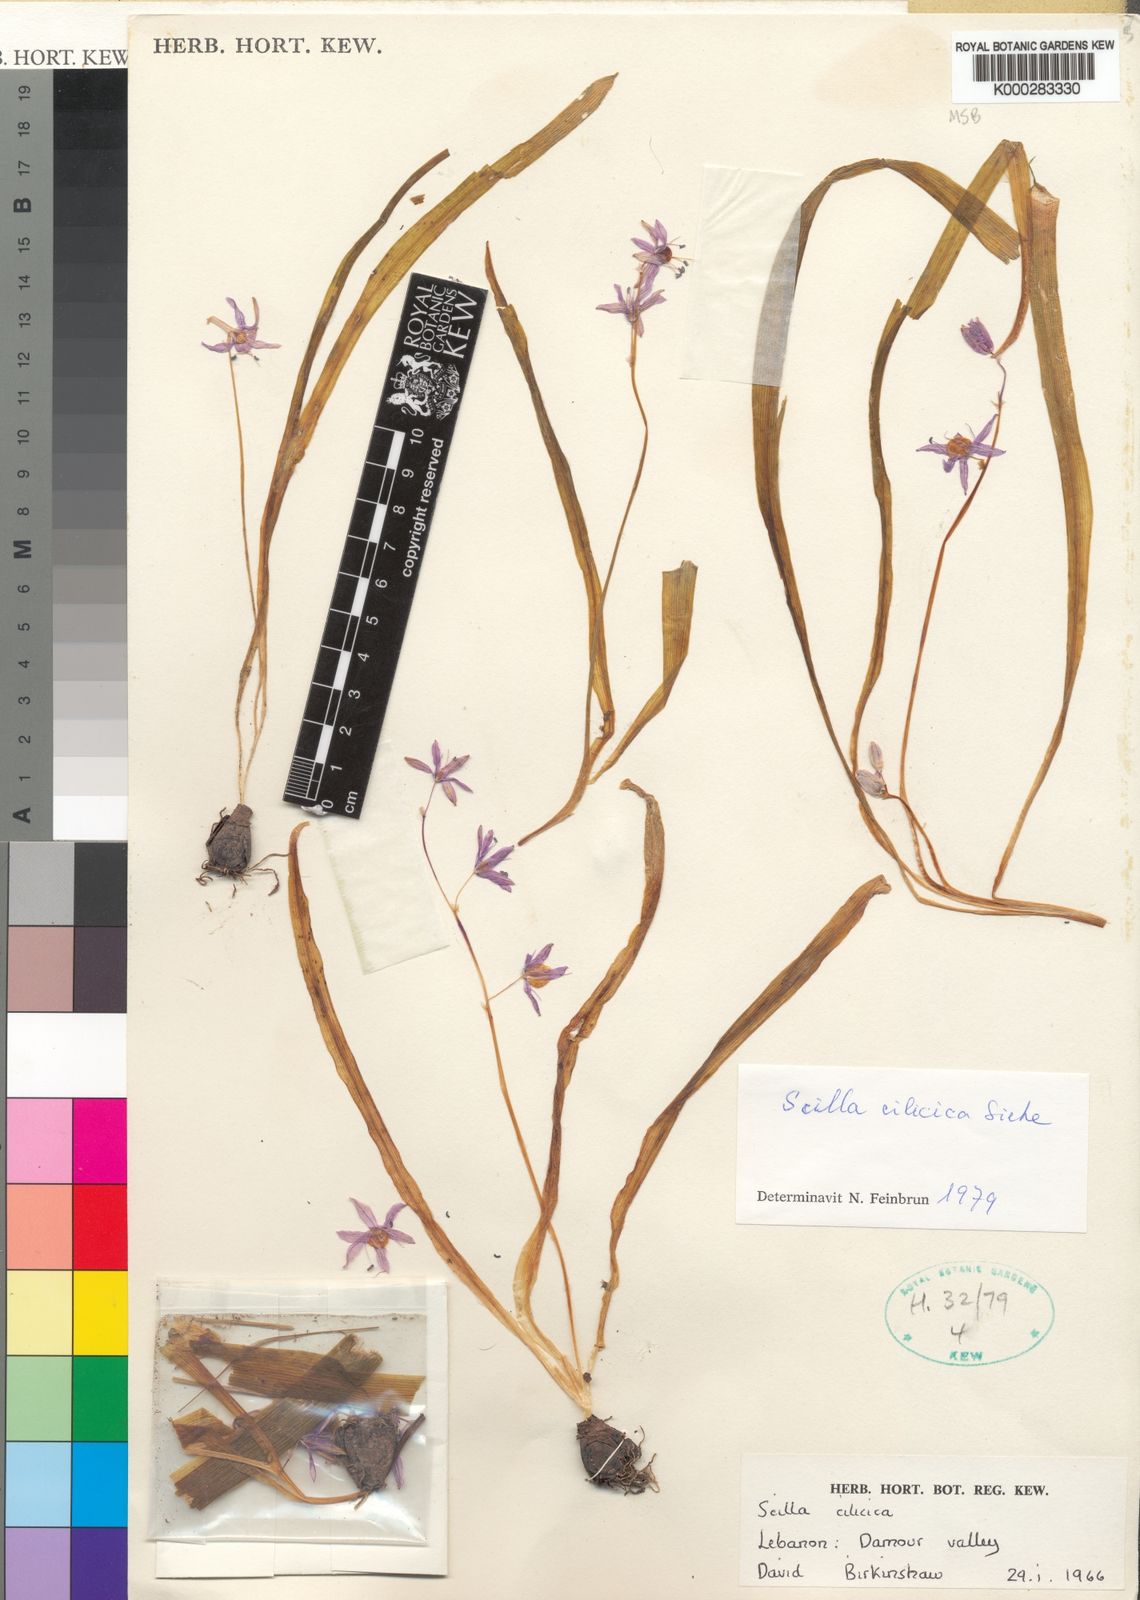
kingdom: Plantae
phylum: Tracheophyta
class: Liliopsida
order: Asparagales
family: Asparagaceae
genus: Scilla
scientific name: Scilla cilicica
